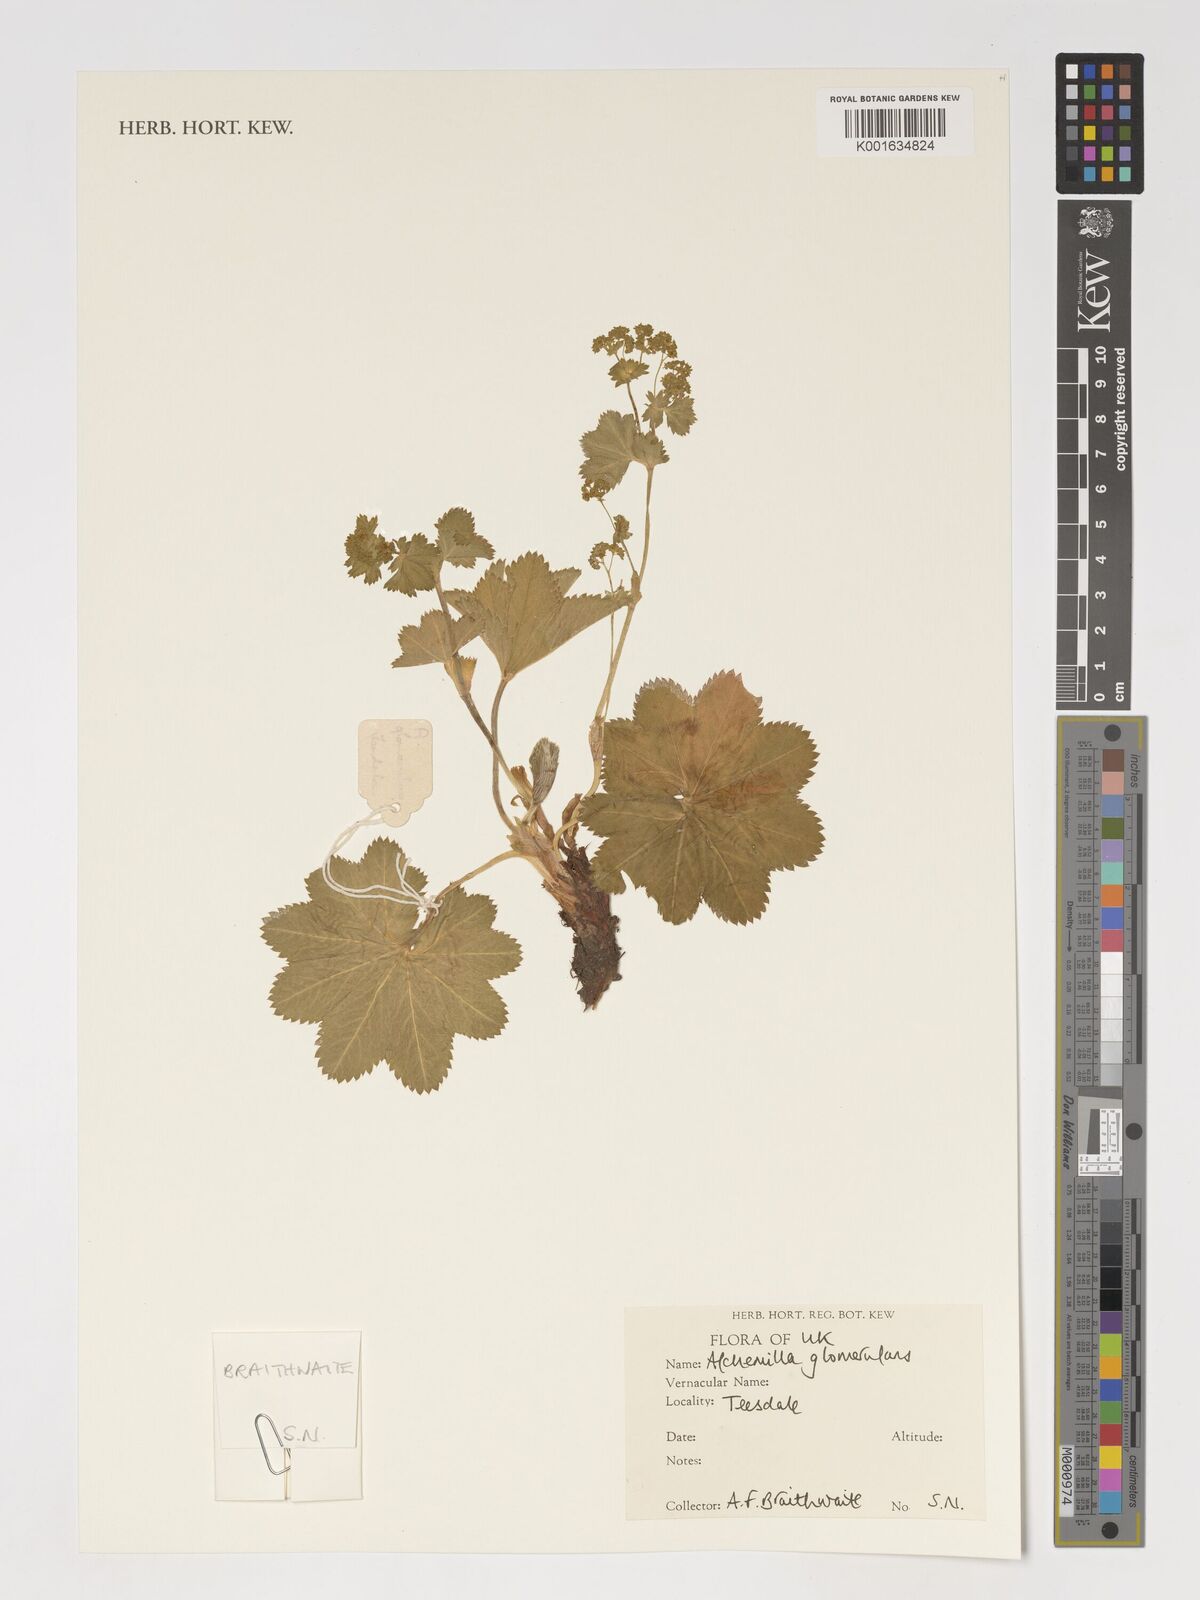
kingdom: Plantae
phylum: Tracheophyta
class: Magnoliopsida
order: Rosales
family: Rosaceae
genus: Alchemilla
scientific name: Alchemilla glomerulans
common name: Clustered lady's mantle
